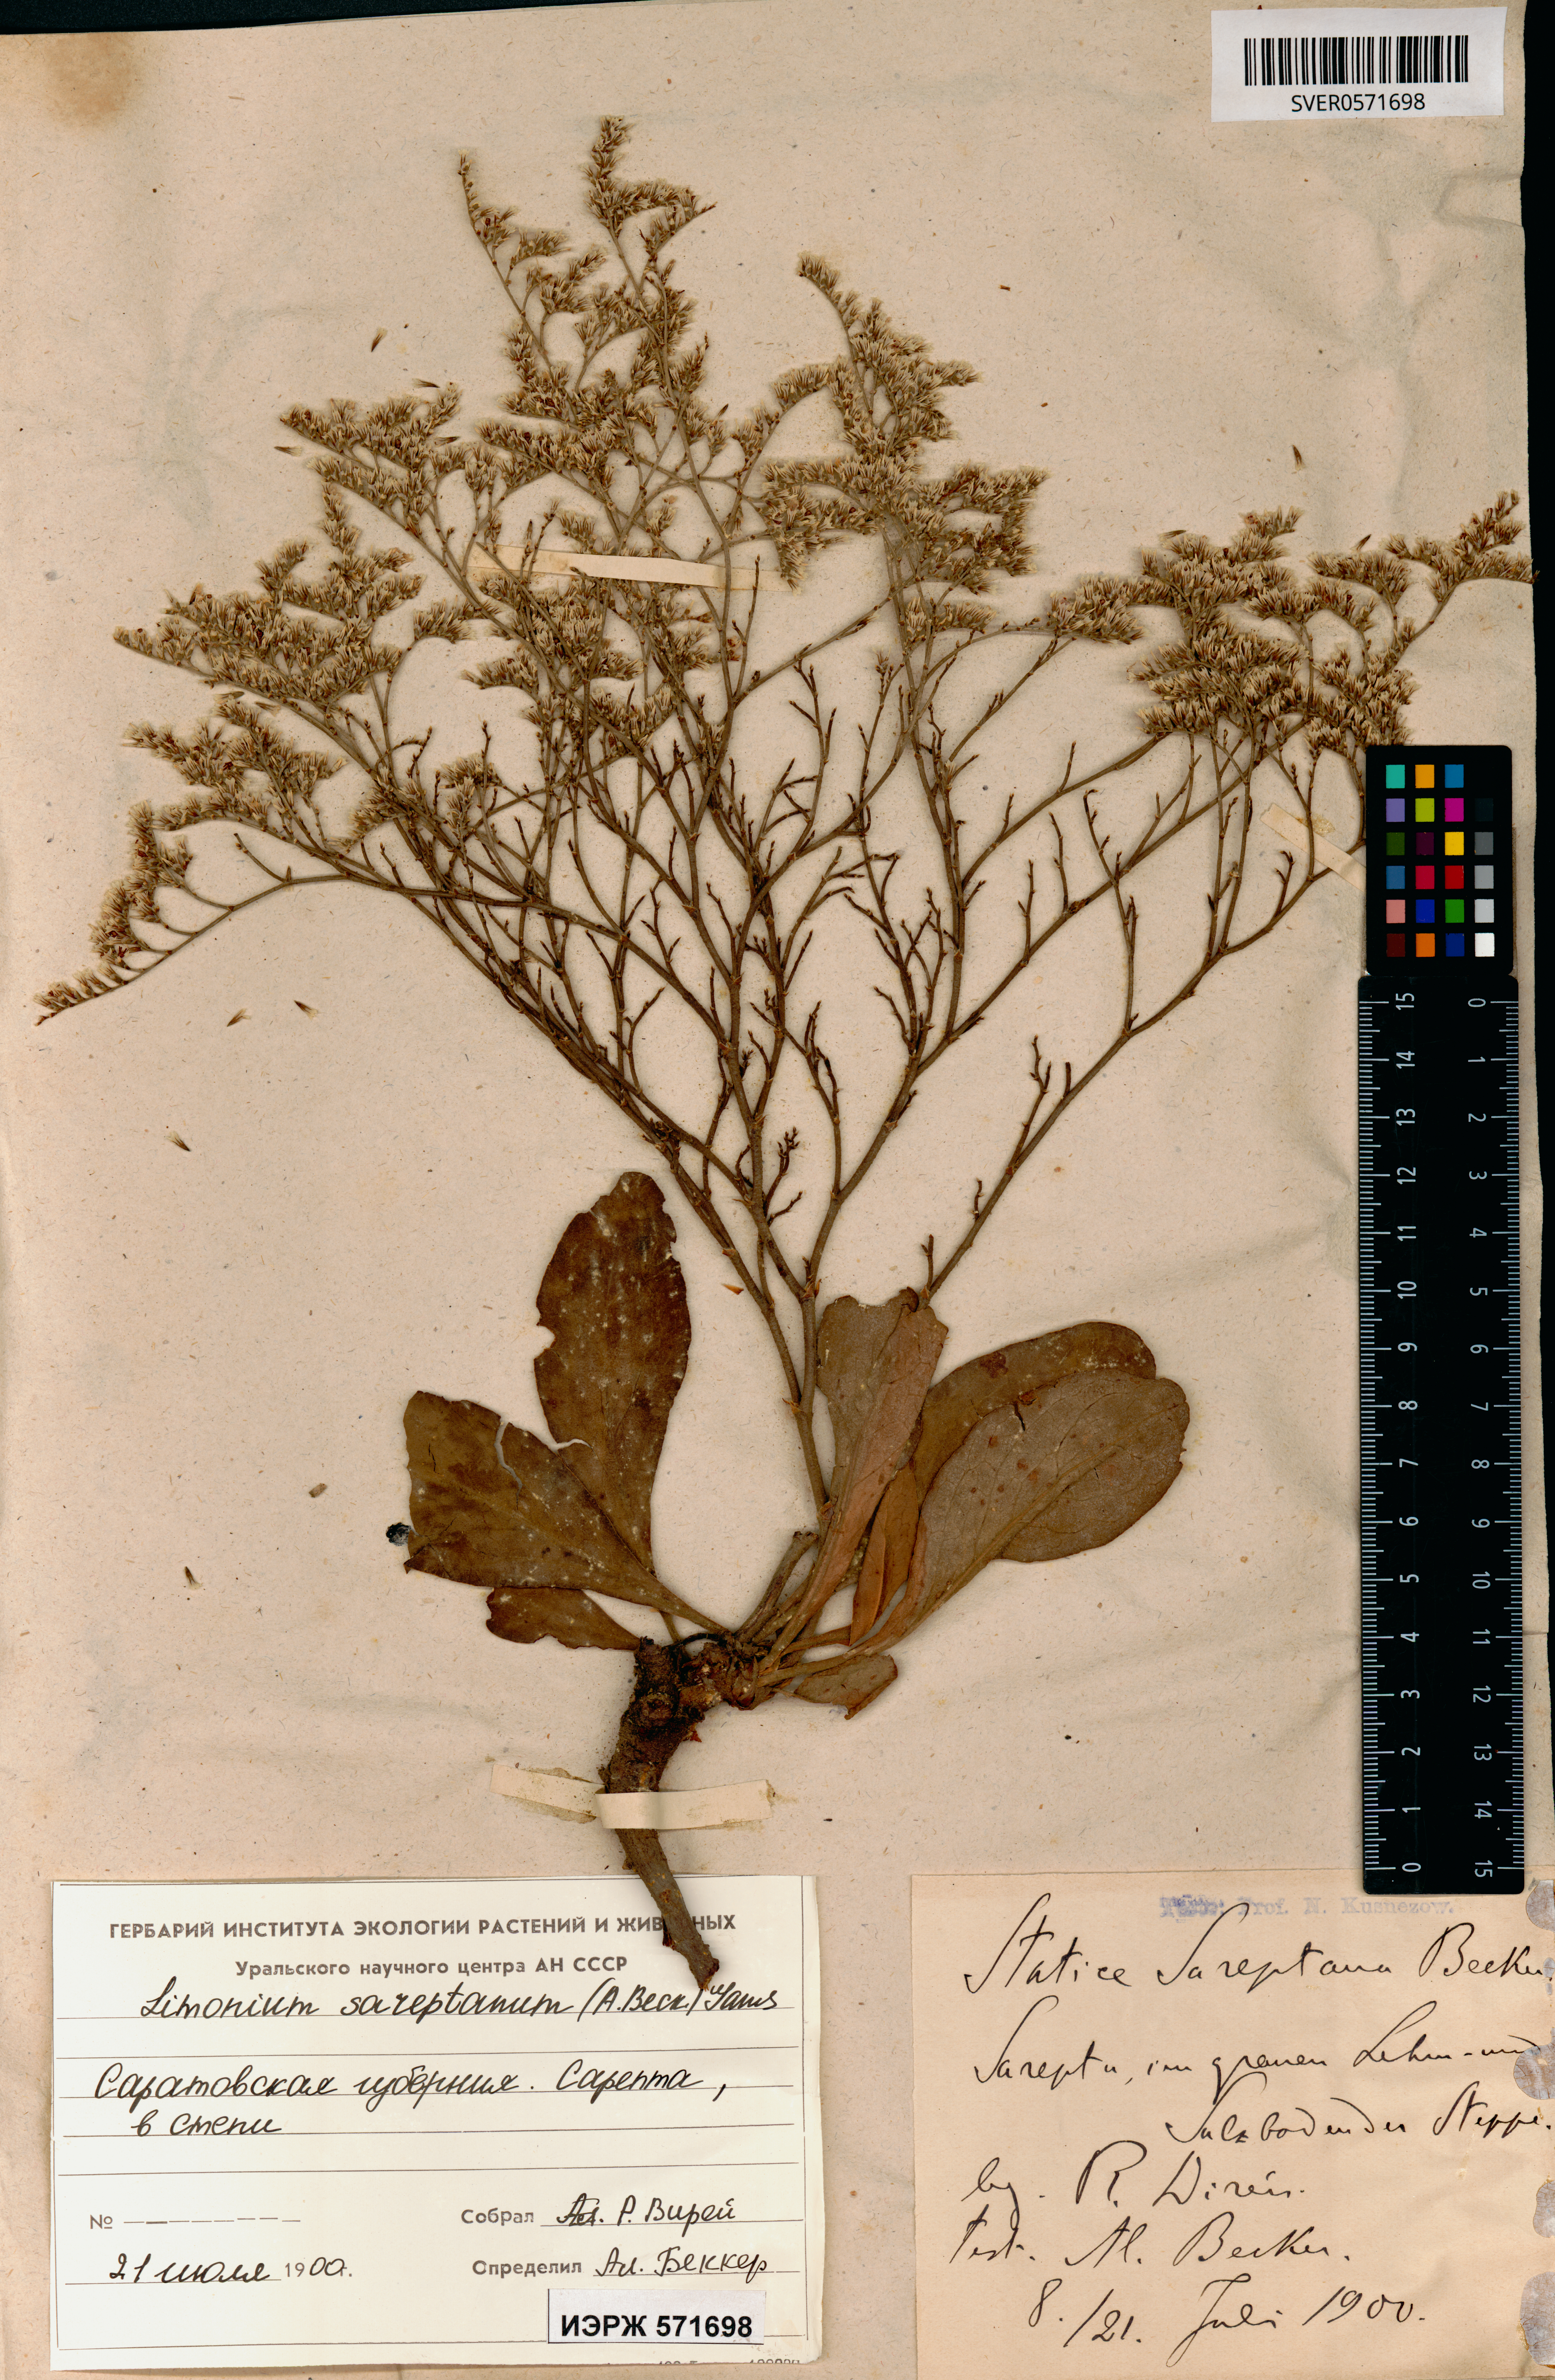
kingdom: Plantae
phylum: Tracheophyta
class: Magnoliopsida
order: Caryophyllales
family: Plumbaginaceae
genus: Limonium
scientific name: Limonium sareptanum
